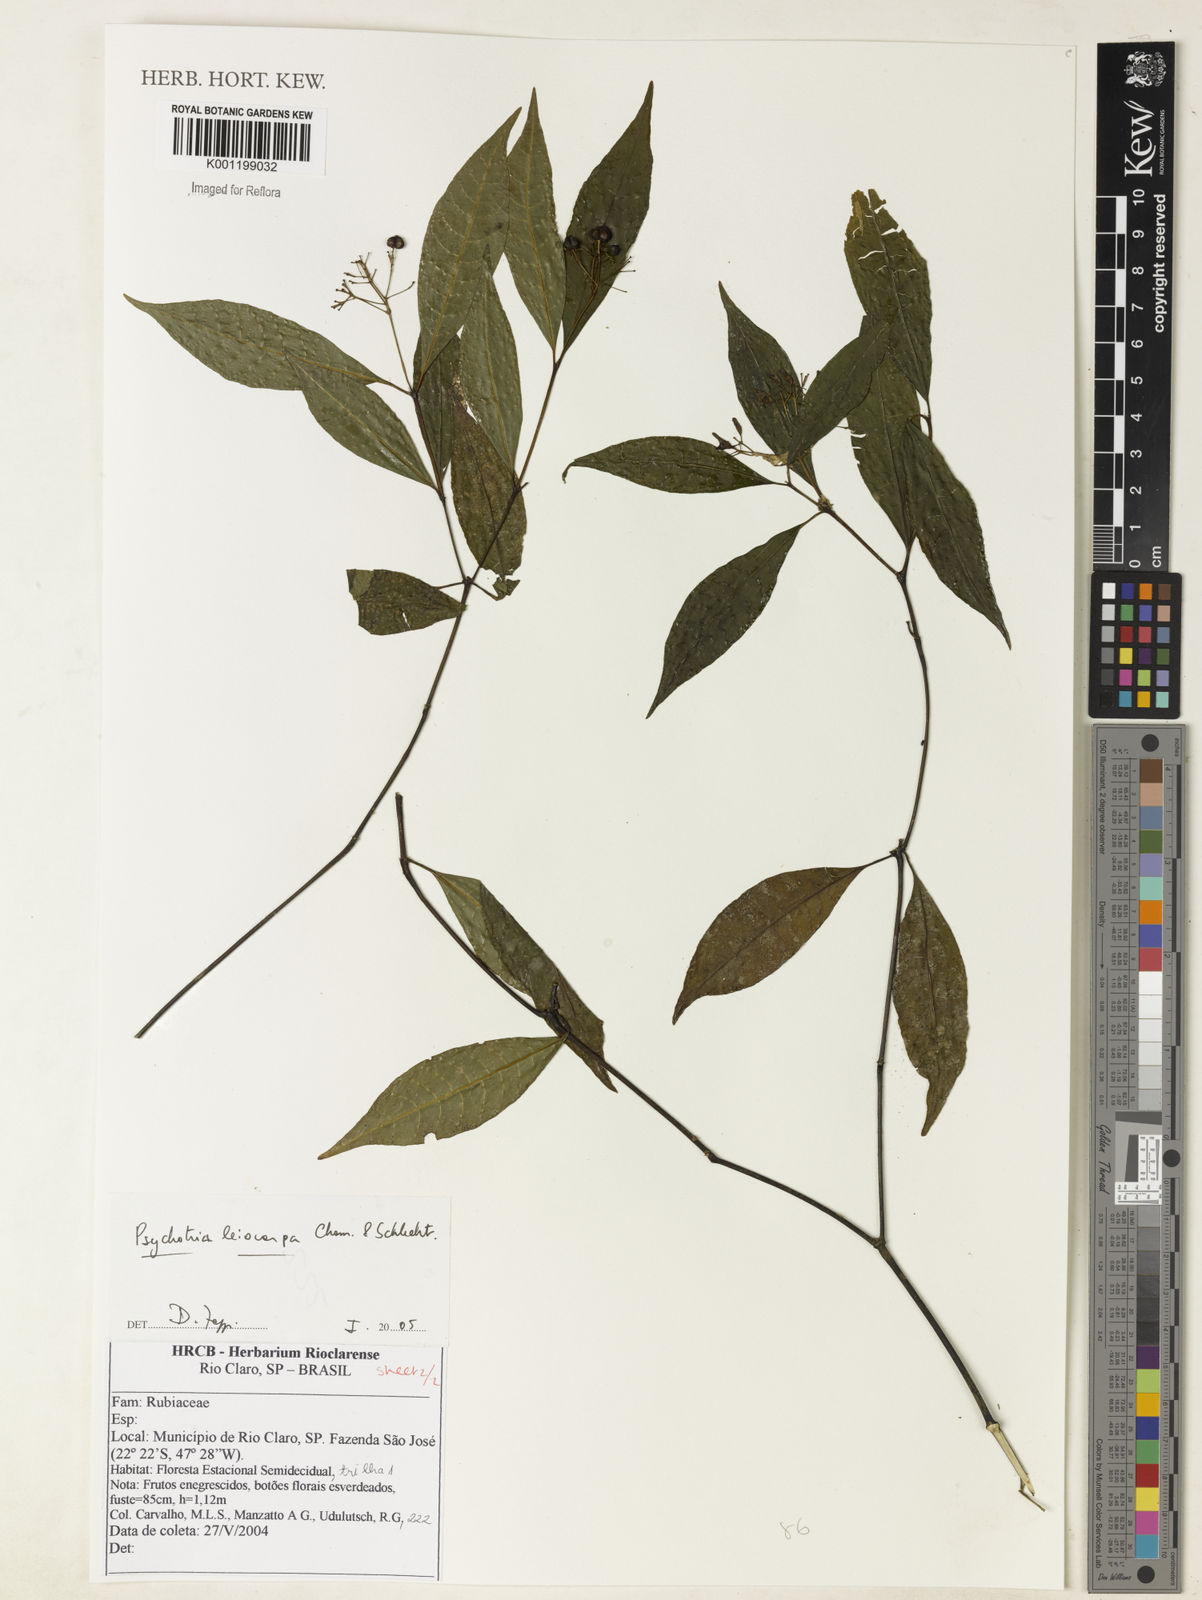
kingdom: Plantae
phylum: Tracheophyta
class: Magnoliopsida
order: Gentianales
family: Rubiaceae
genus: Psychotria
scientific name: Psychotria leiocarpa
